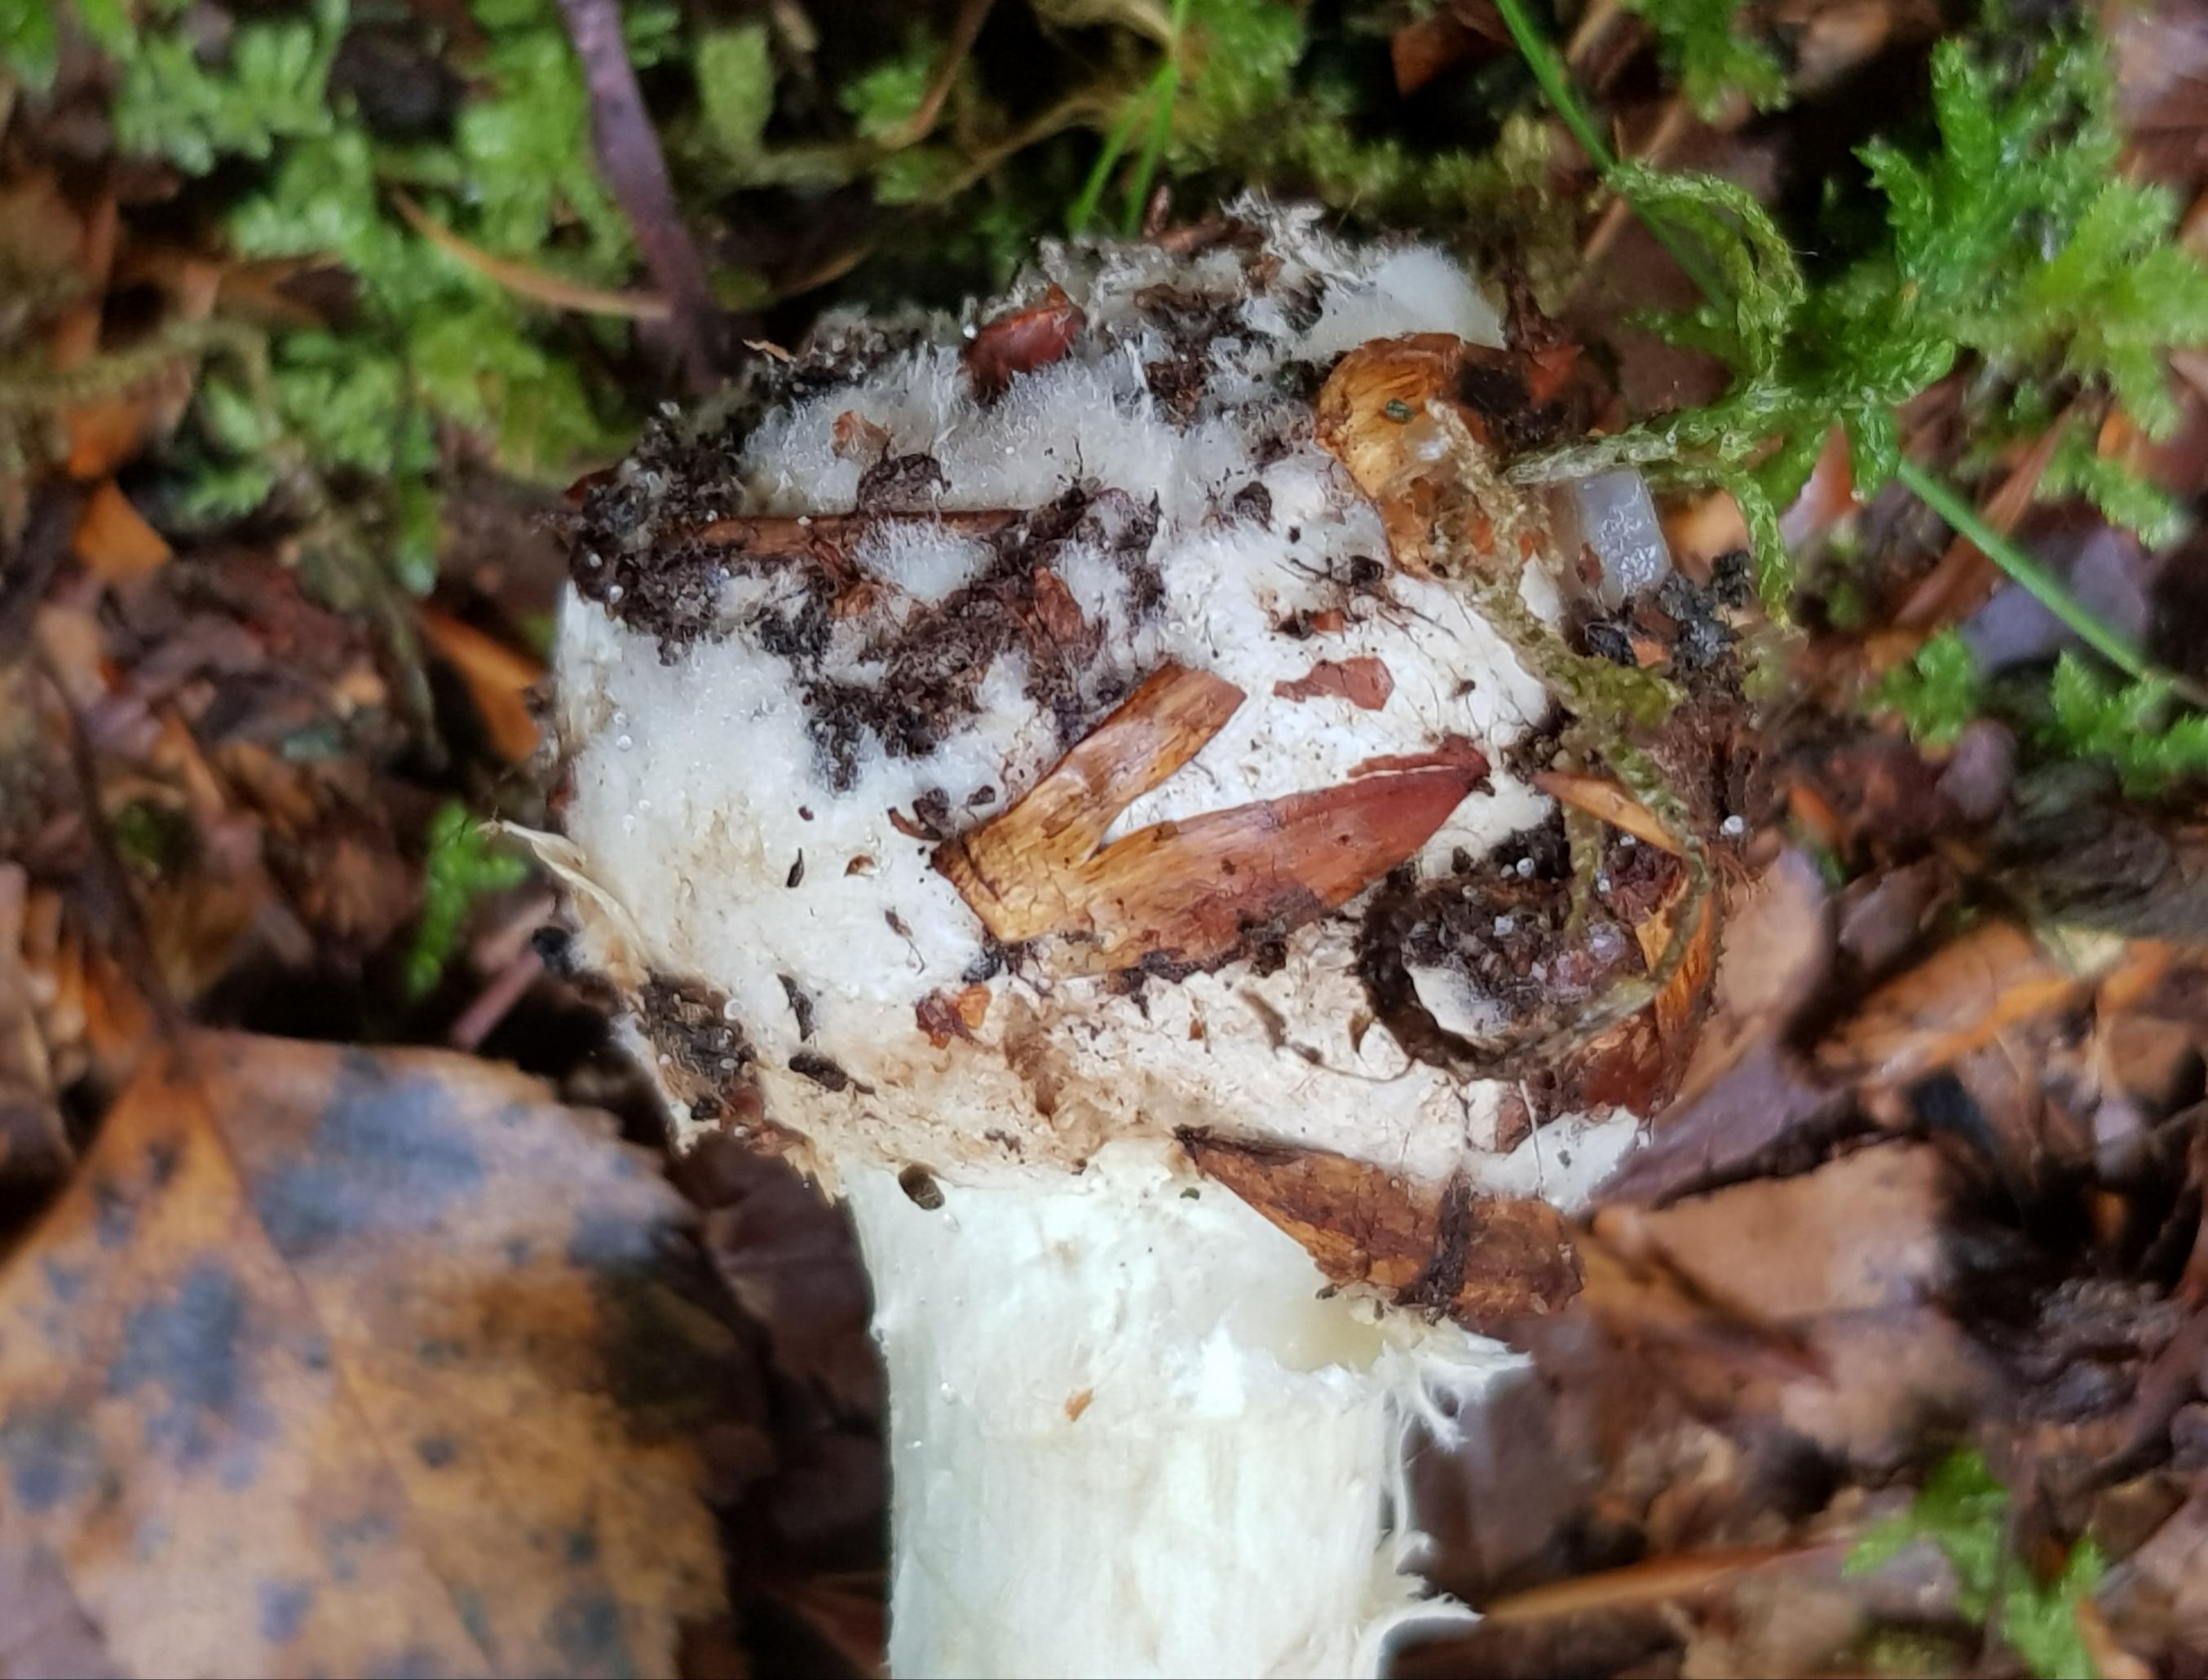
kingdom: Fungi
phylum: Basidiomycota
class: Agaricomycetes
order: Agaricales
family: Amanitaceae
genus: Amanita
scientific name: Amanita citrina
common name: kugleknoldet fluesvamp
